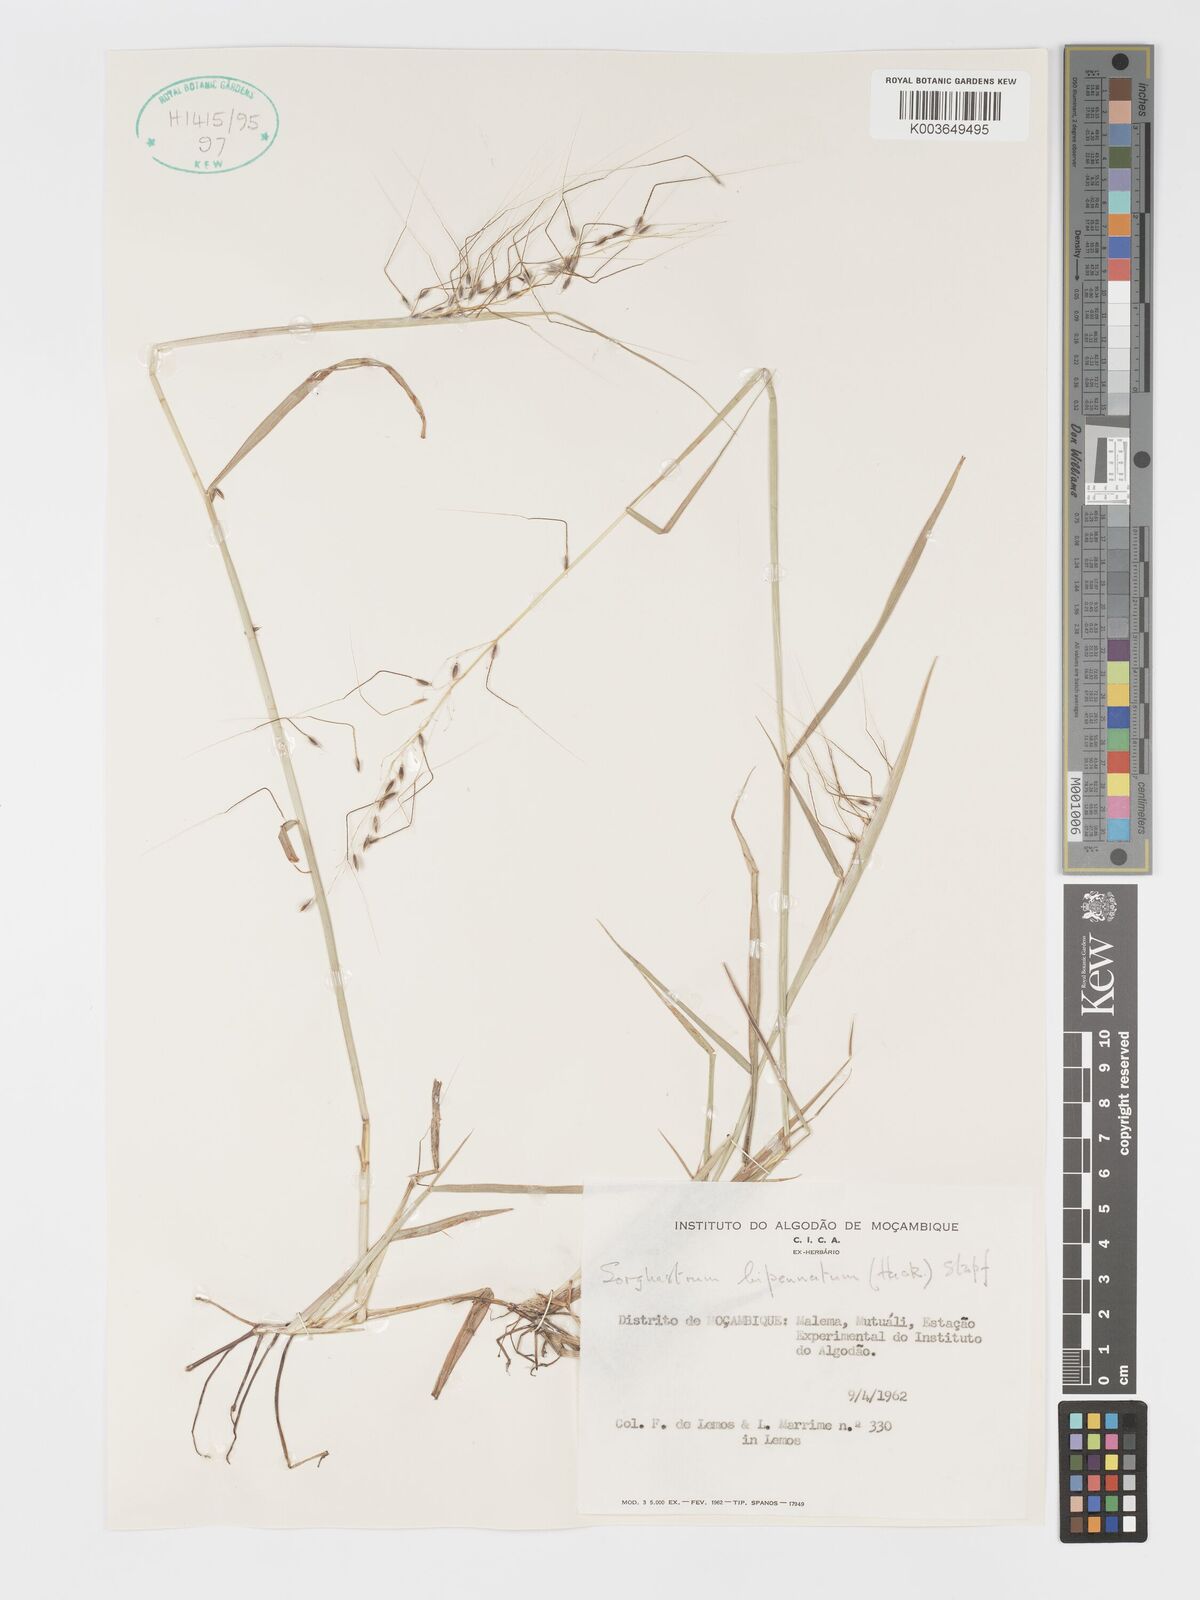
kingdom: Plantae
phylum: Tracheophyta
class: Liliopsida
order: Poales
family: Poaceae
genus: Sorghastrum
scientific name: Sorghastrum incompletum
